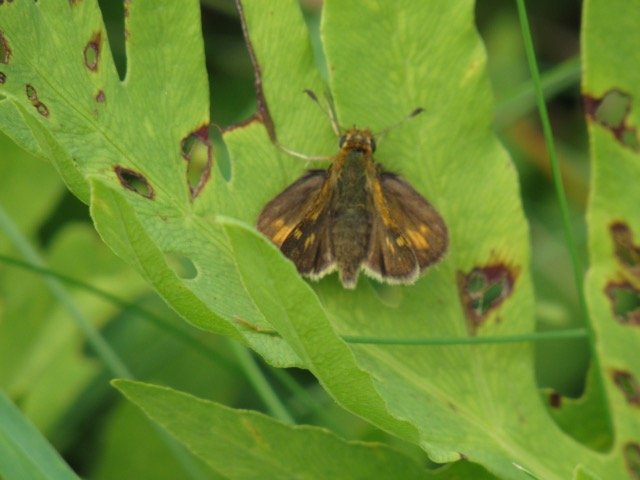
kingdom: Animalia
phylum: Arthropoda
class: Insecta
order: Lepidoptera
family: Hesperiidae
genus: Polites
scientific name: Polites coras
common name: Peck's Skipper
